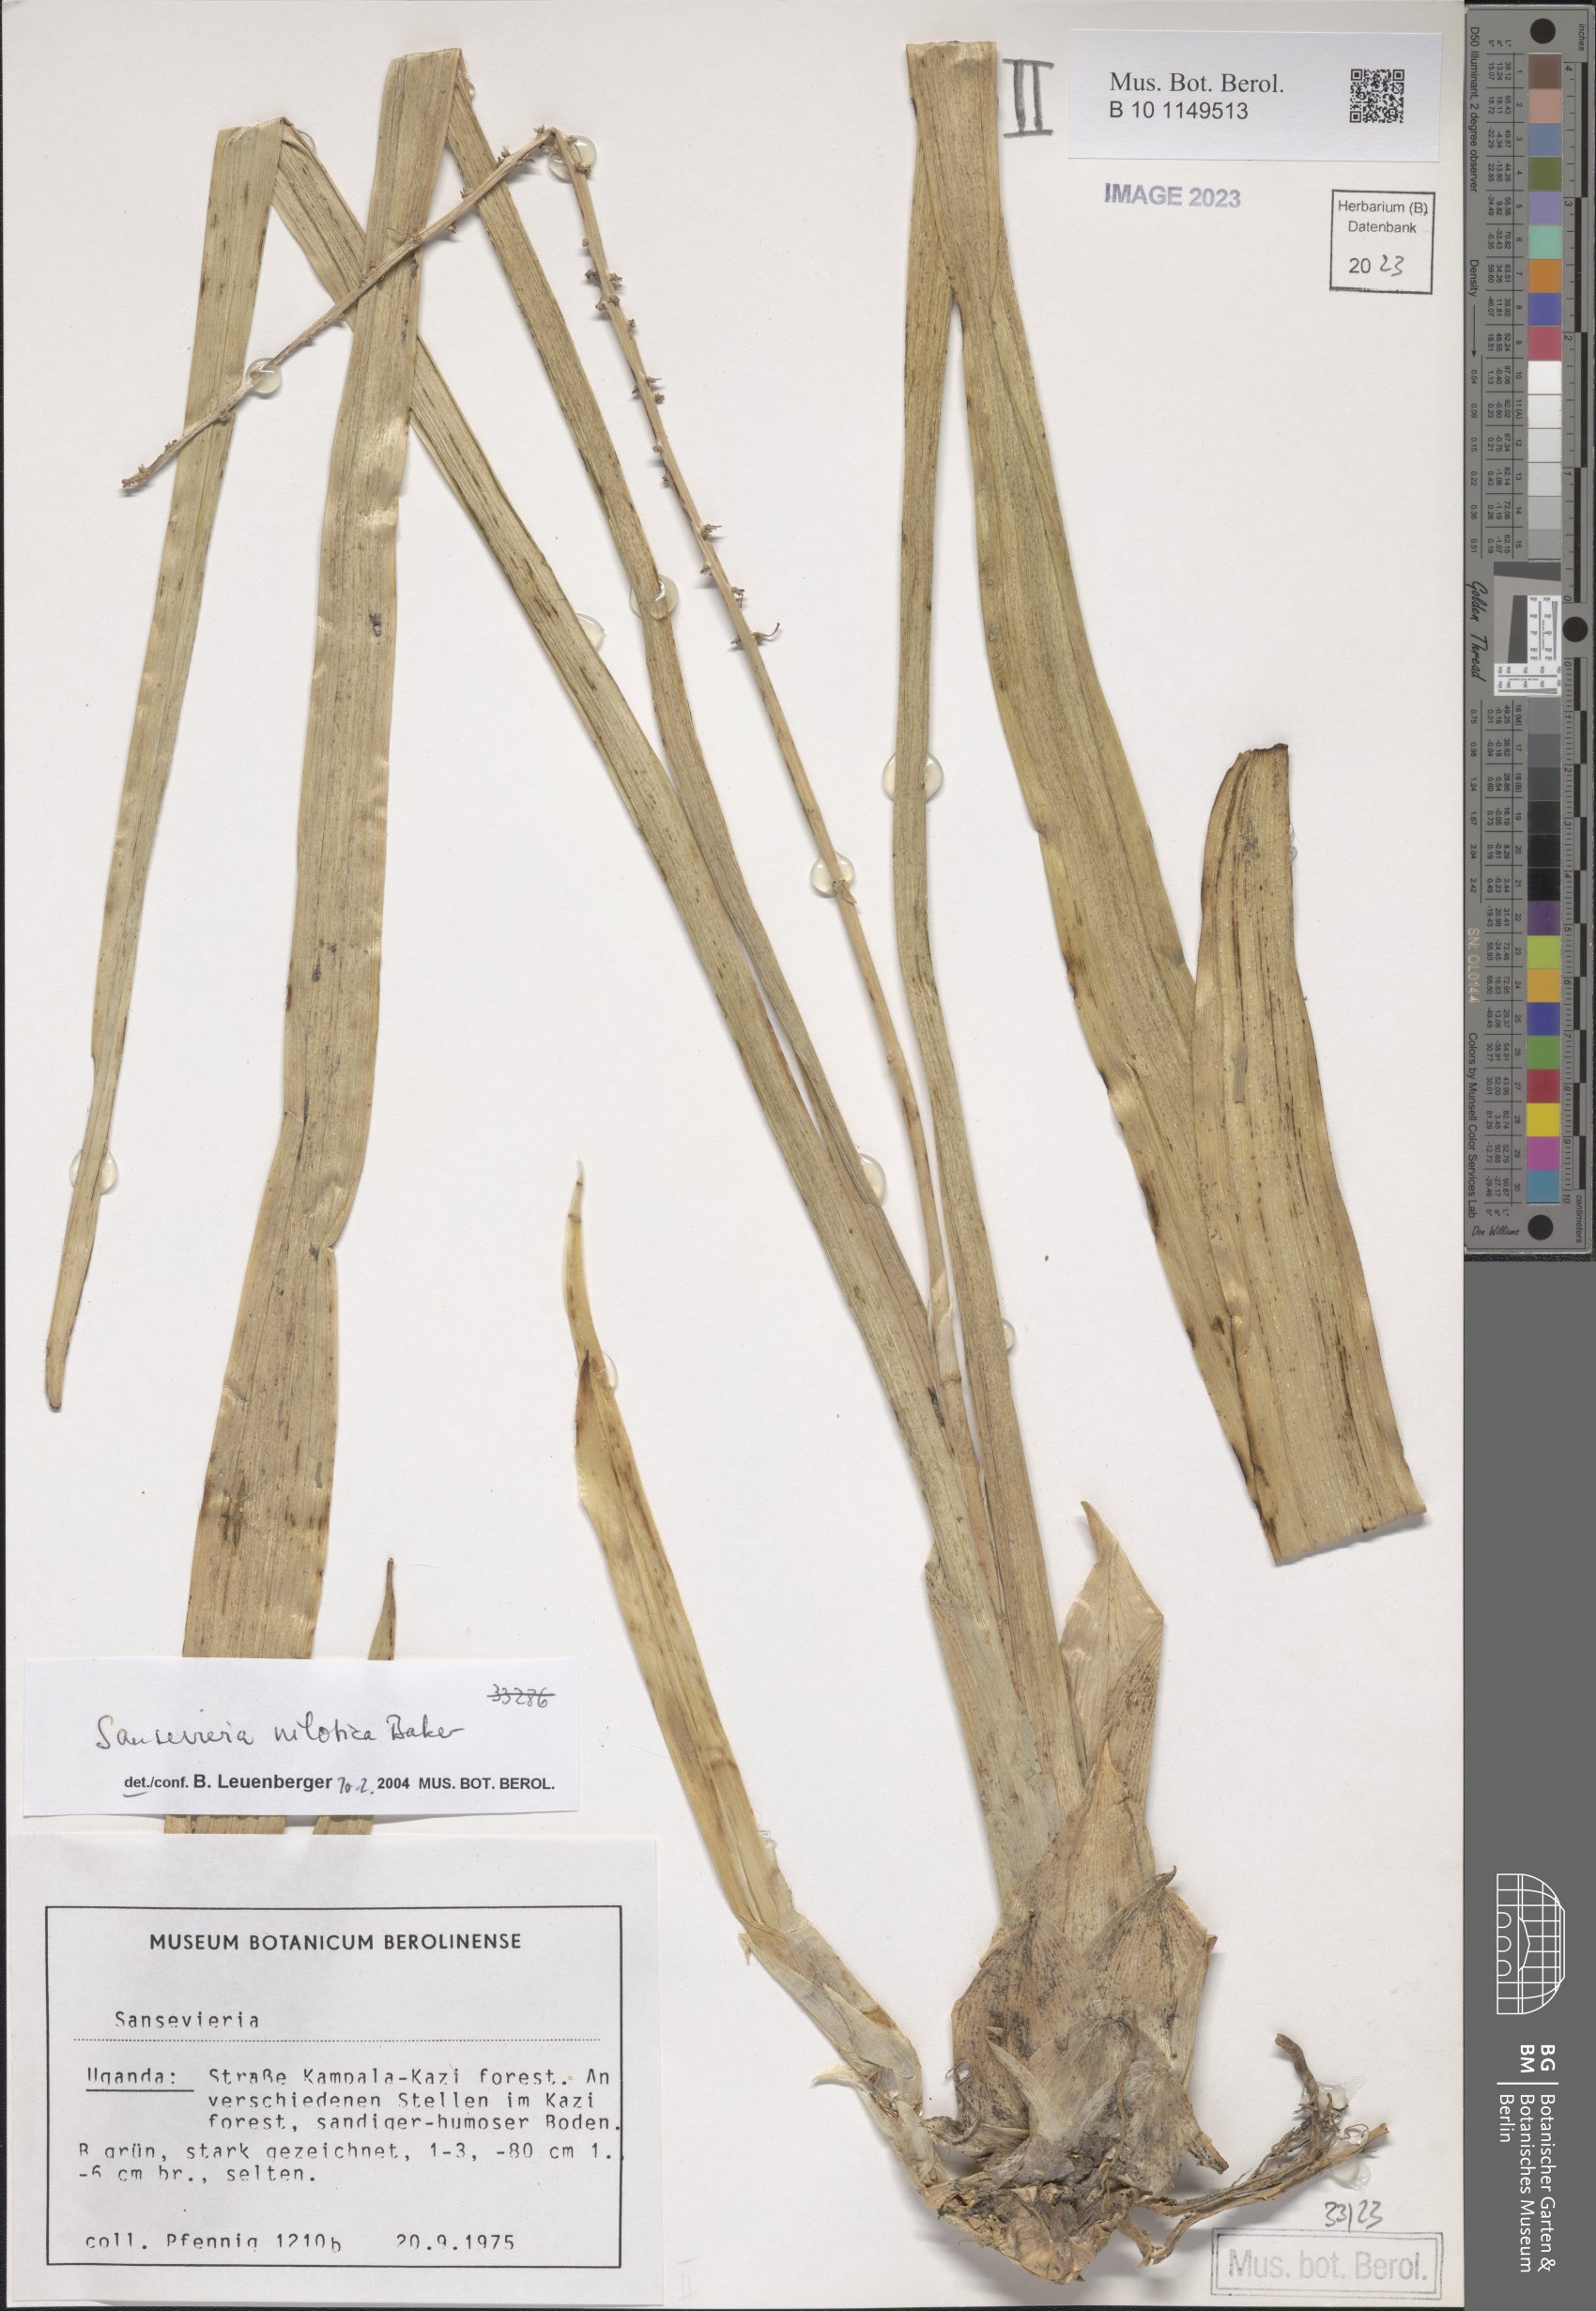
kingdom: Plantae
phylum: Tracheophyta
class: Liliopsida
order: Asparagales
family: Asparagaceae
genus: Dracaena
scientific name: Dracaena nilotica
